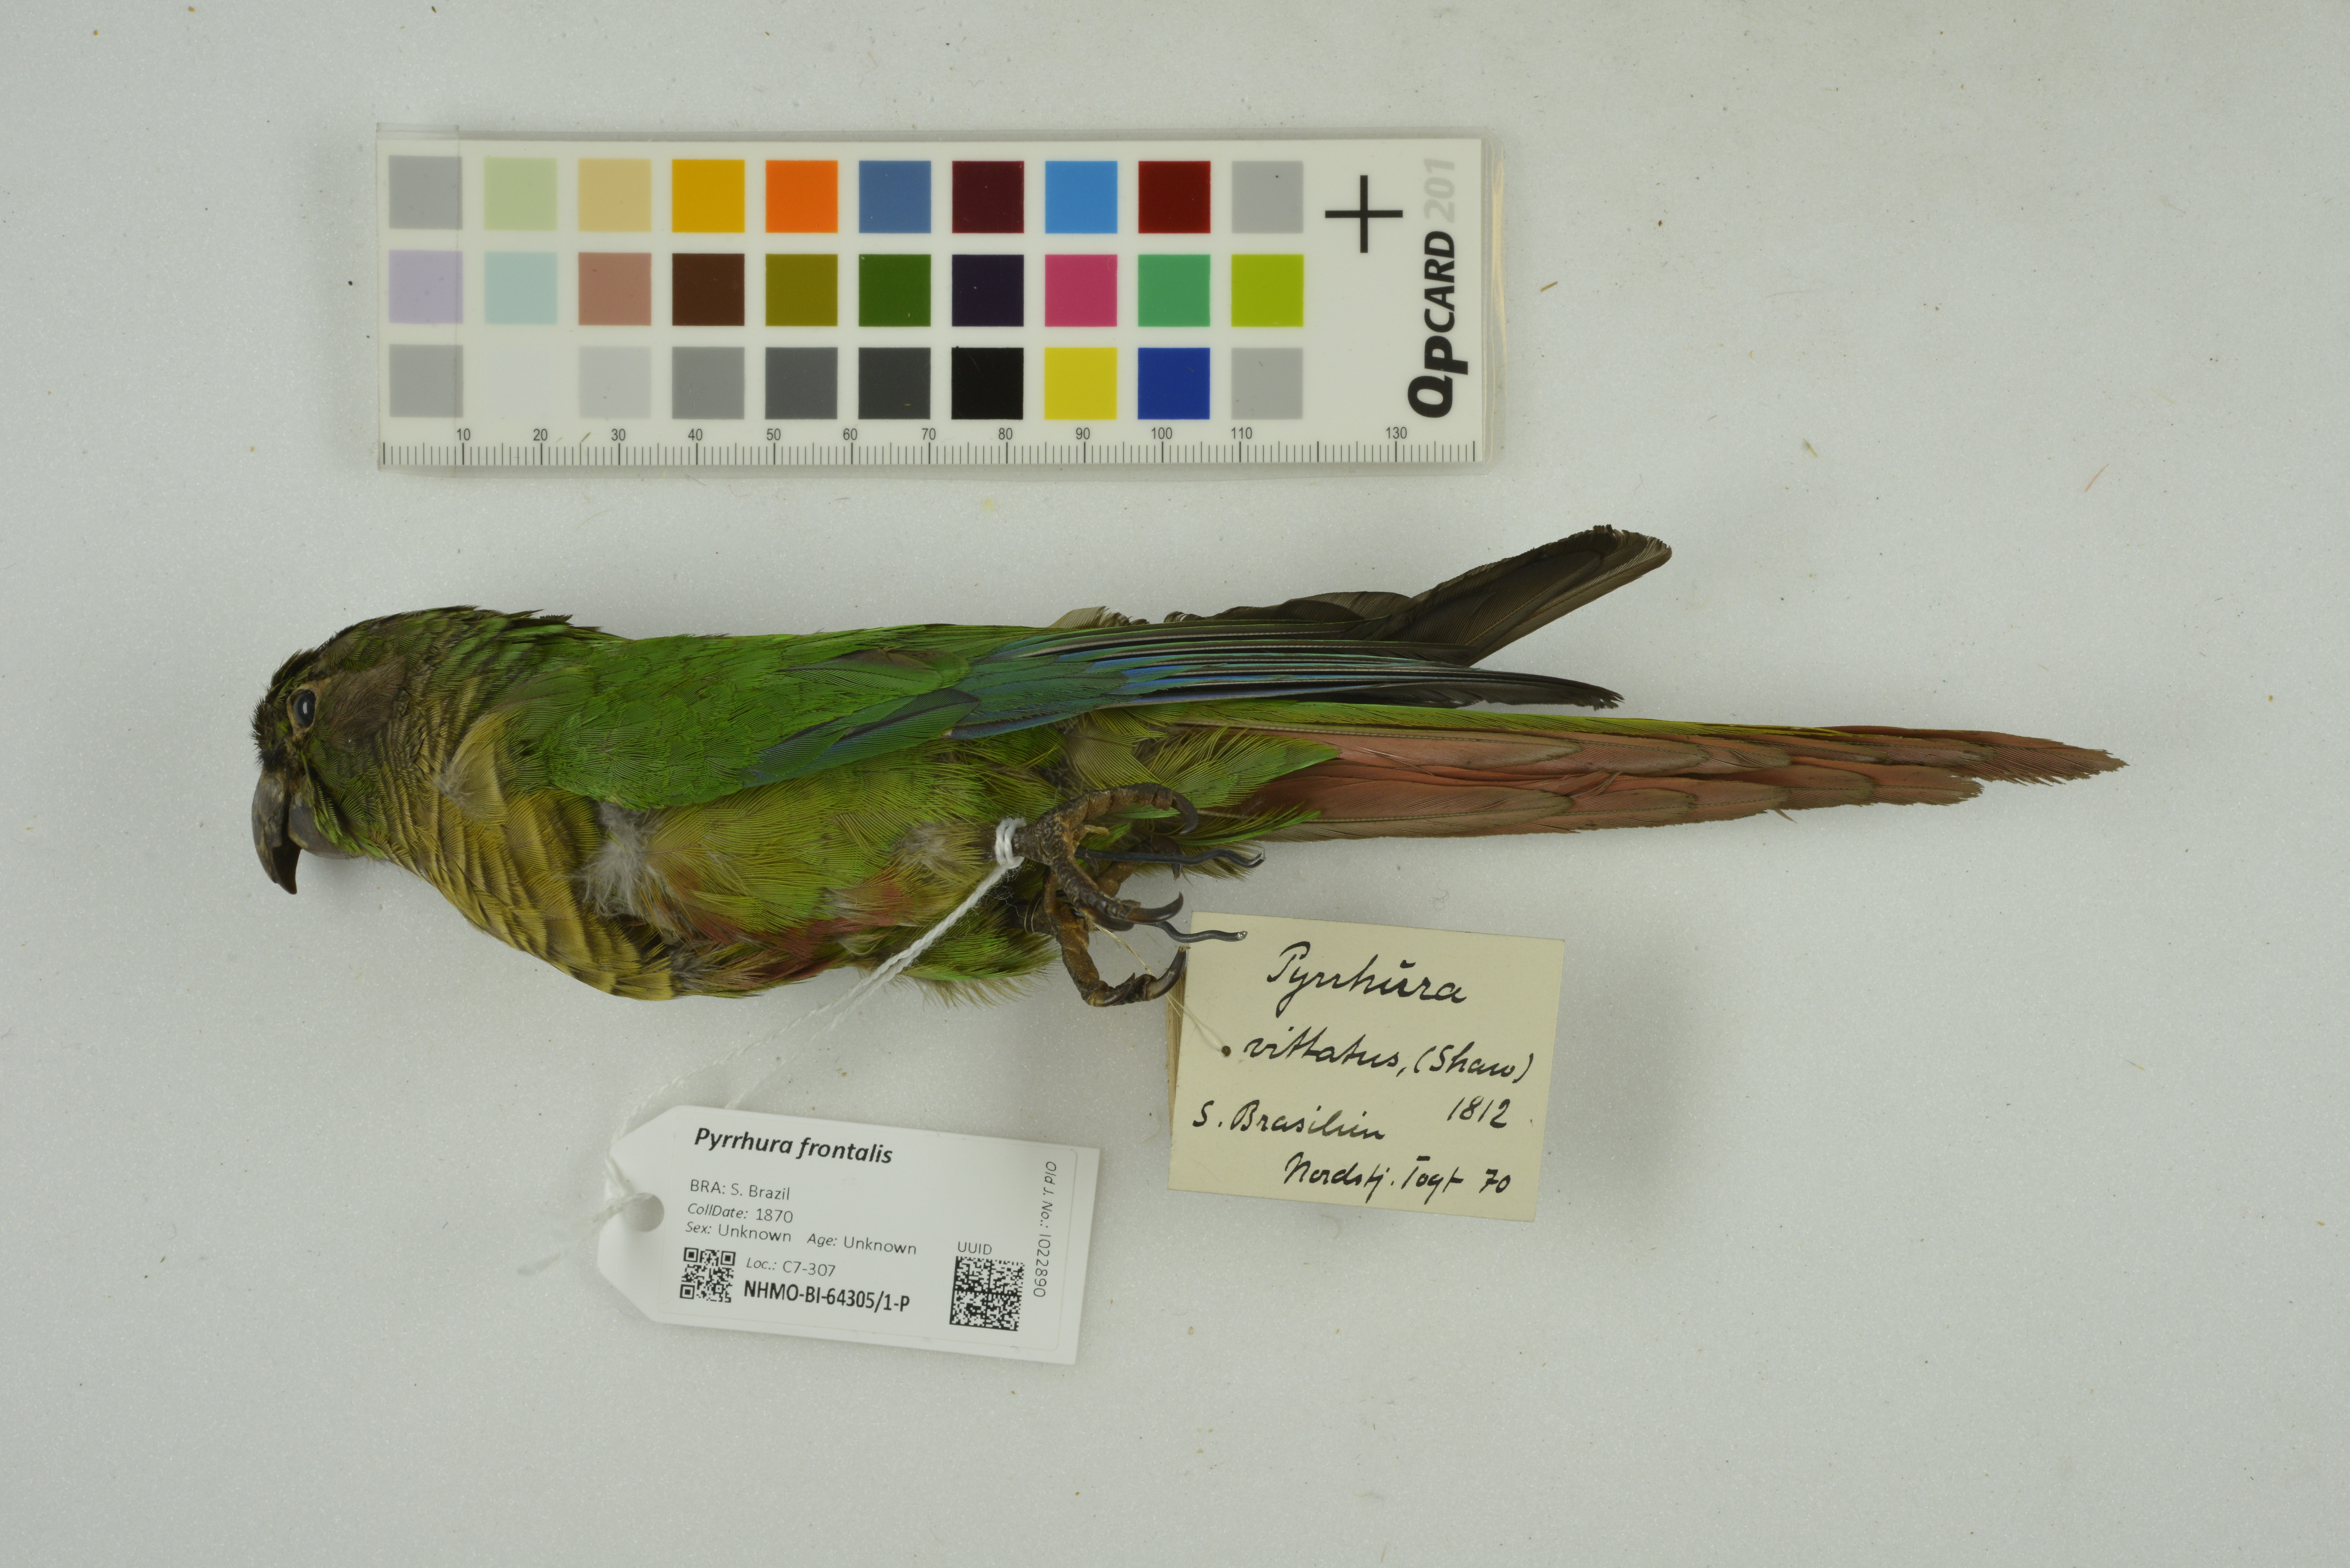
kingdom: Animalia
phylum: Chordata
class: Aves
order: Psittaciformes
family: Psittacidae
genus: Pyrrhura
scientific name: Pyrrhura frontalis
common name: Maroon-bellied parakeet
